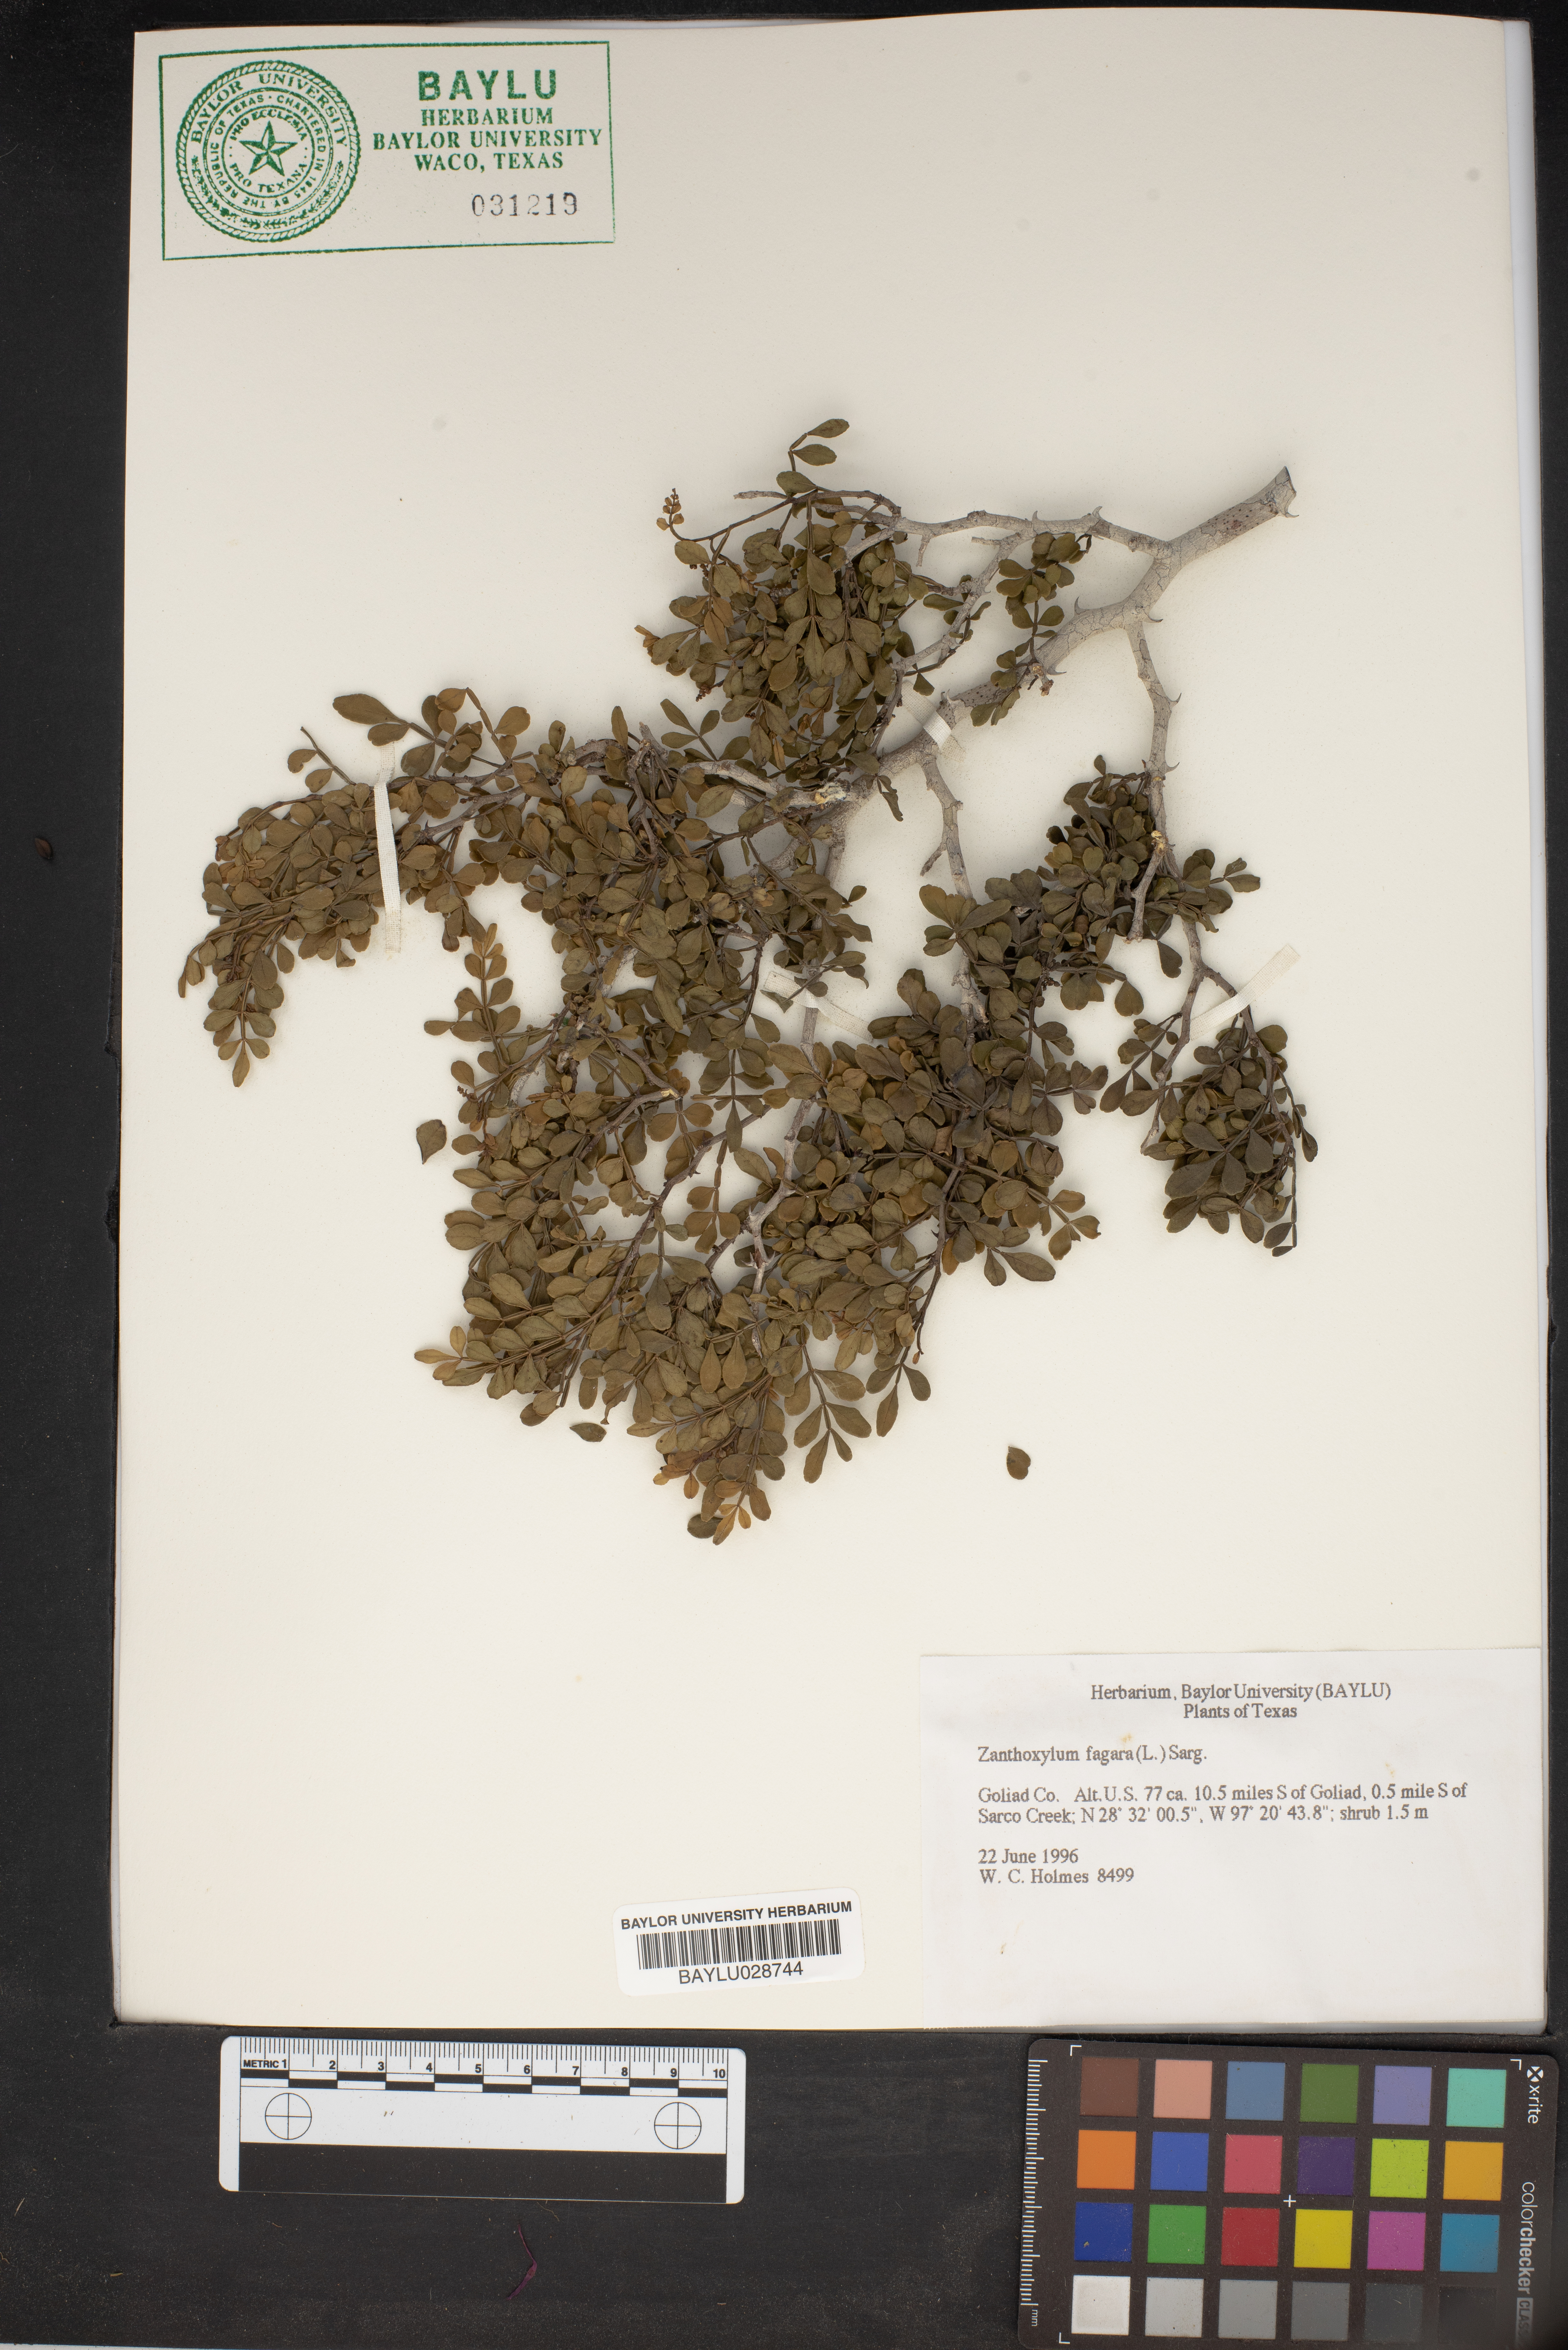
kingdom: Plantae
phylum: Tracheophyta
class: Magnoliopsida
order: Sapindales
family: Rutaceae
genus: Zanthoxylum
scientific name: Zanthoxylum fagara
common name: Lime prickly-ash
